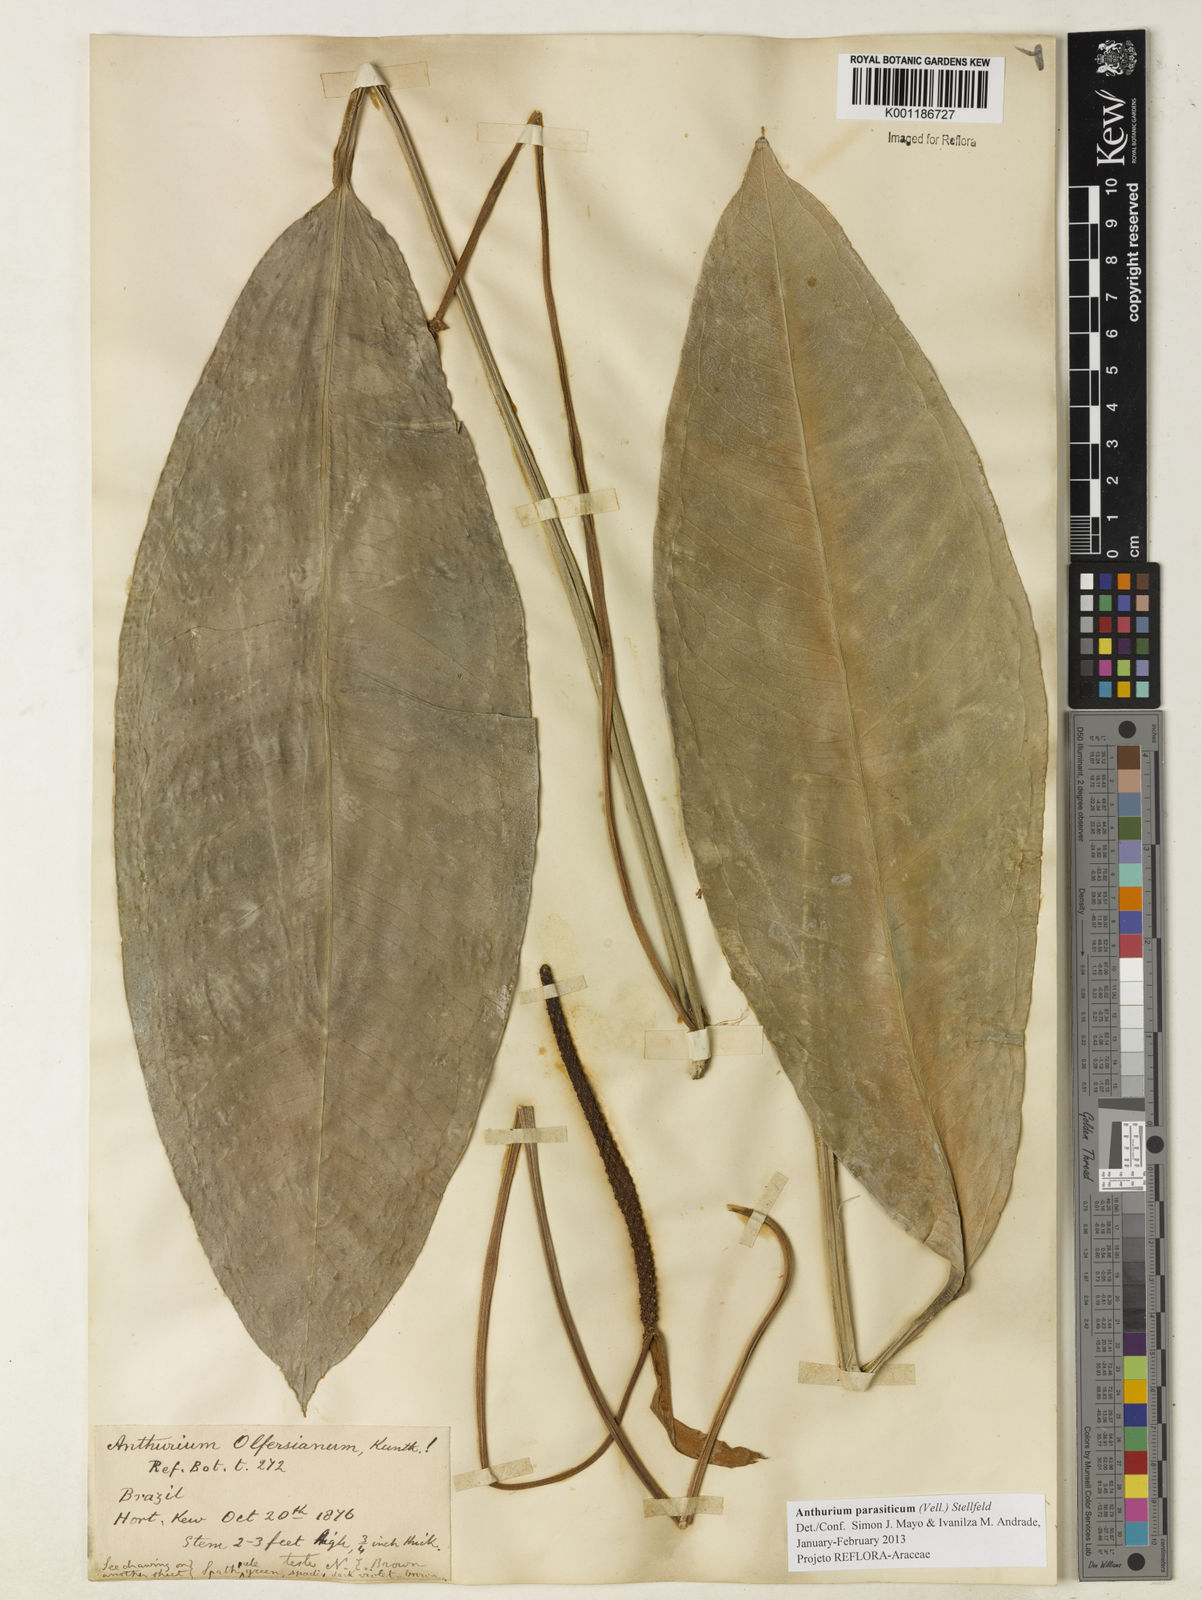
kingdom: Plantae
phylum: Tracheophyta
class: Liliopsida
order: Alismatales
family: Araceae
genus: Anthurium
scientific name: Anthurium parasiticum
